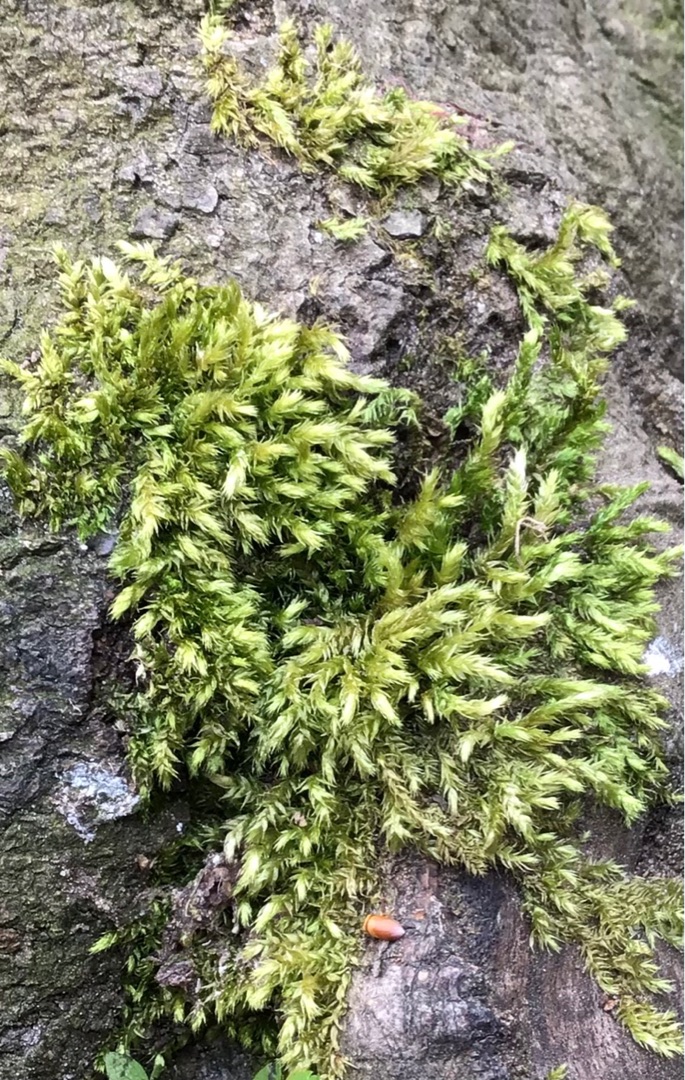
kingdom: Plantae
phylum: Bryophyta
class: Bryopsida
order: Hypnales
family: Brachytheciaceae
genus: Brachythecium
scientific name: Brachythecium rutabulum
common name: Almindelig kortkapsel
